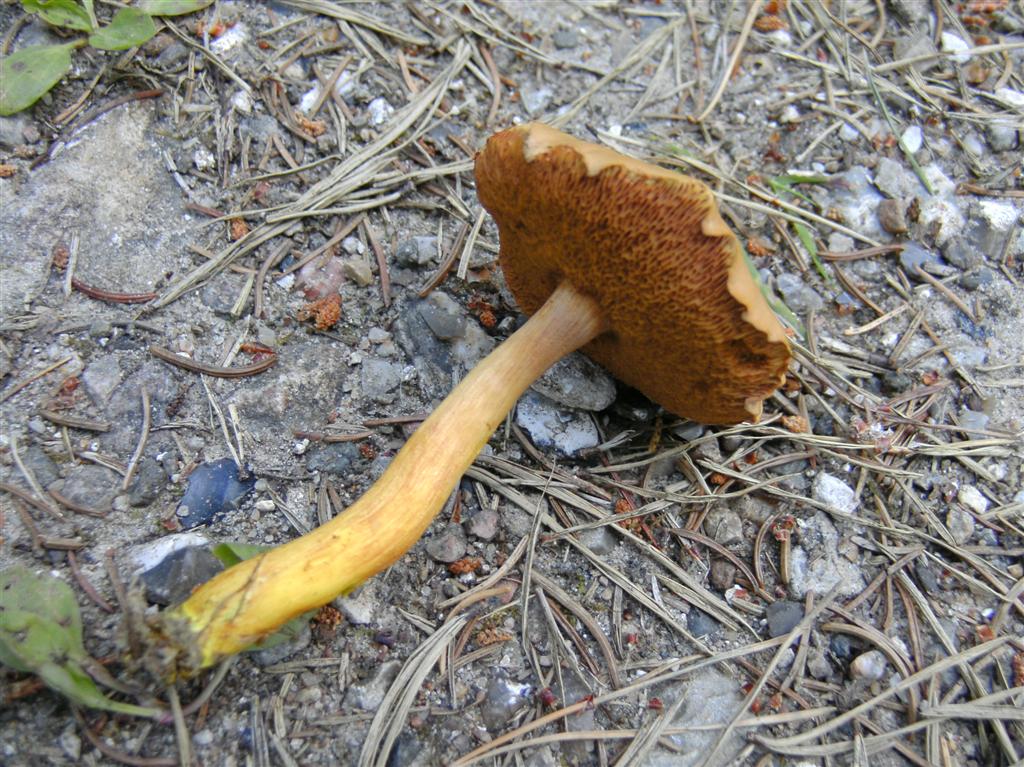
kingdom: Fungi
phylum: Basidiomycota
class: Agaricomycetes
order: Boletales
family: Boletaceae
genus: Chalciporus
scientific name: Chalciporus piperatus
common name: peberrørhat
